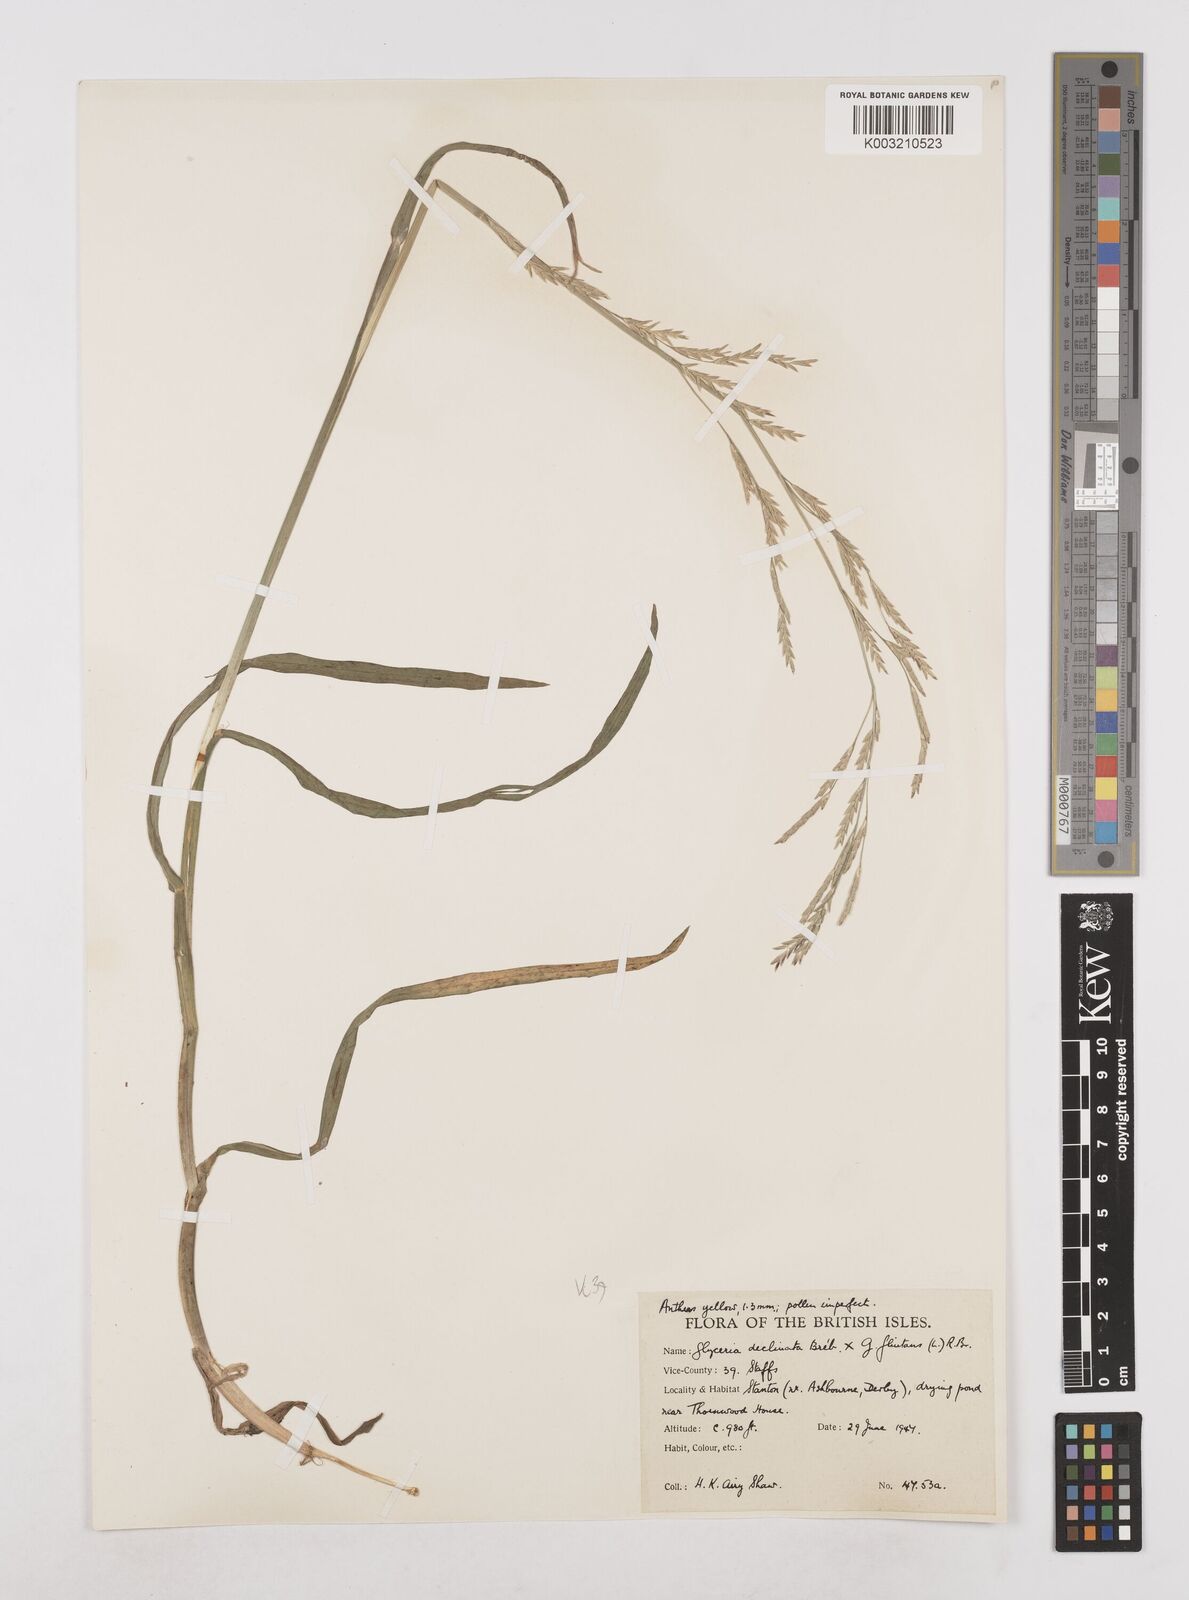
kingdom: Plantae
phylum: Tracheophyta
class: Liliopsida
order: Poales
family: Poaceae
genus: Glyceria
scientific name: Glyceria declinata
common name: Small sweet-grass
